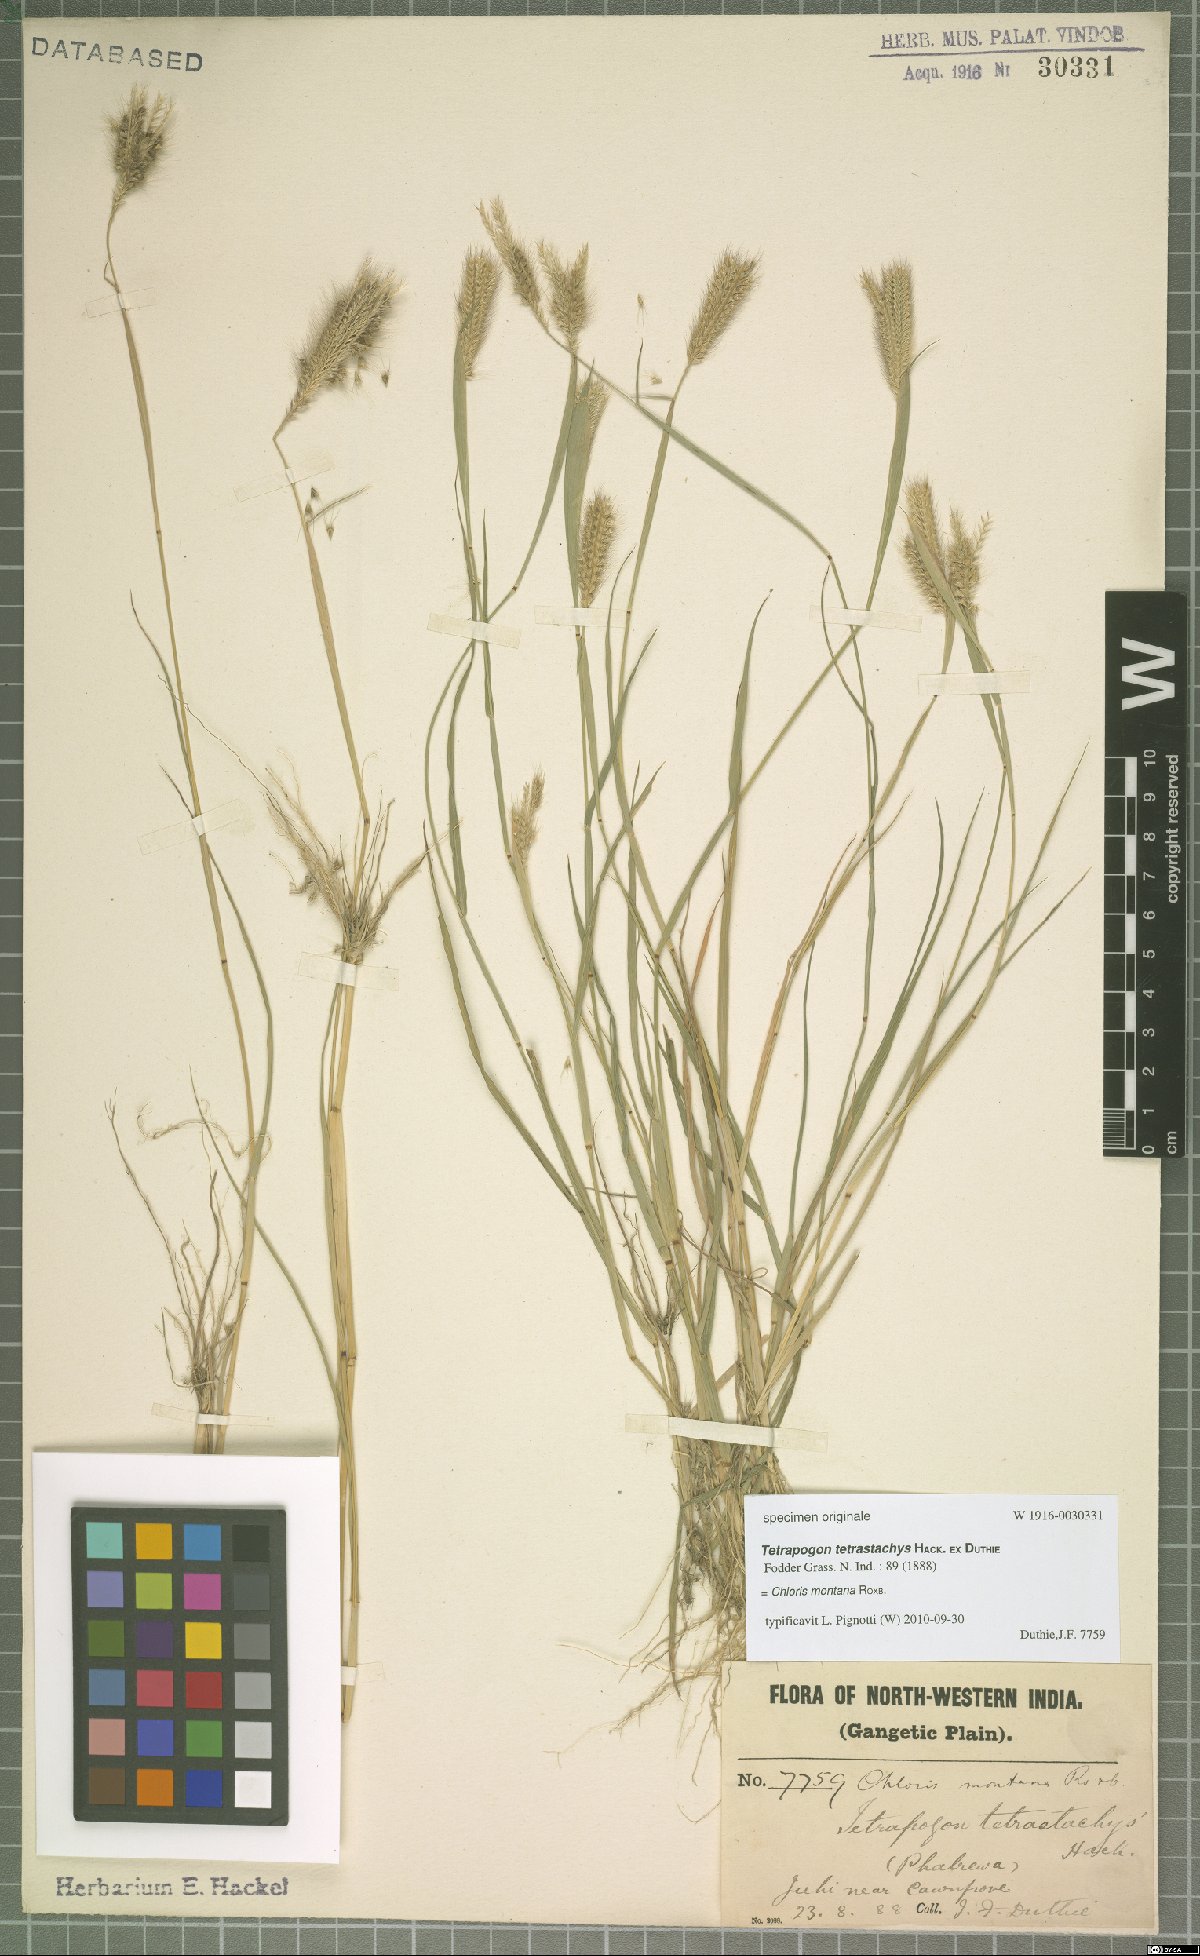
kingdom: Plantae
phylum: Tracheophyta
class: Liliopsida
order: Poales
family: Poaceae
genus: Chloris
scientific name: Chloris montana
